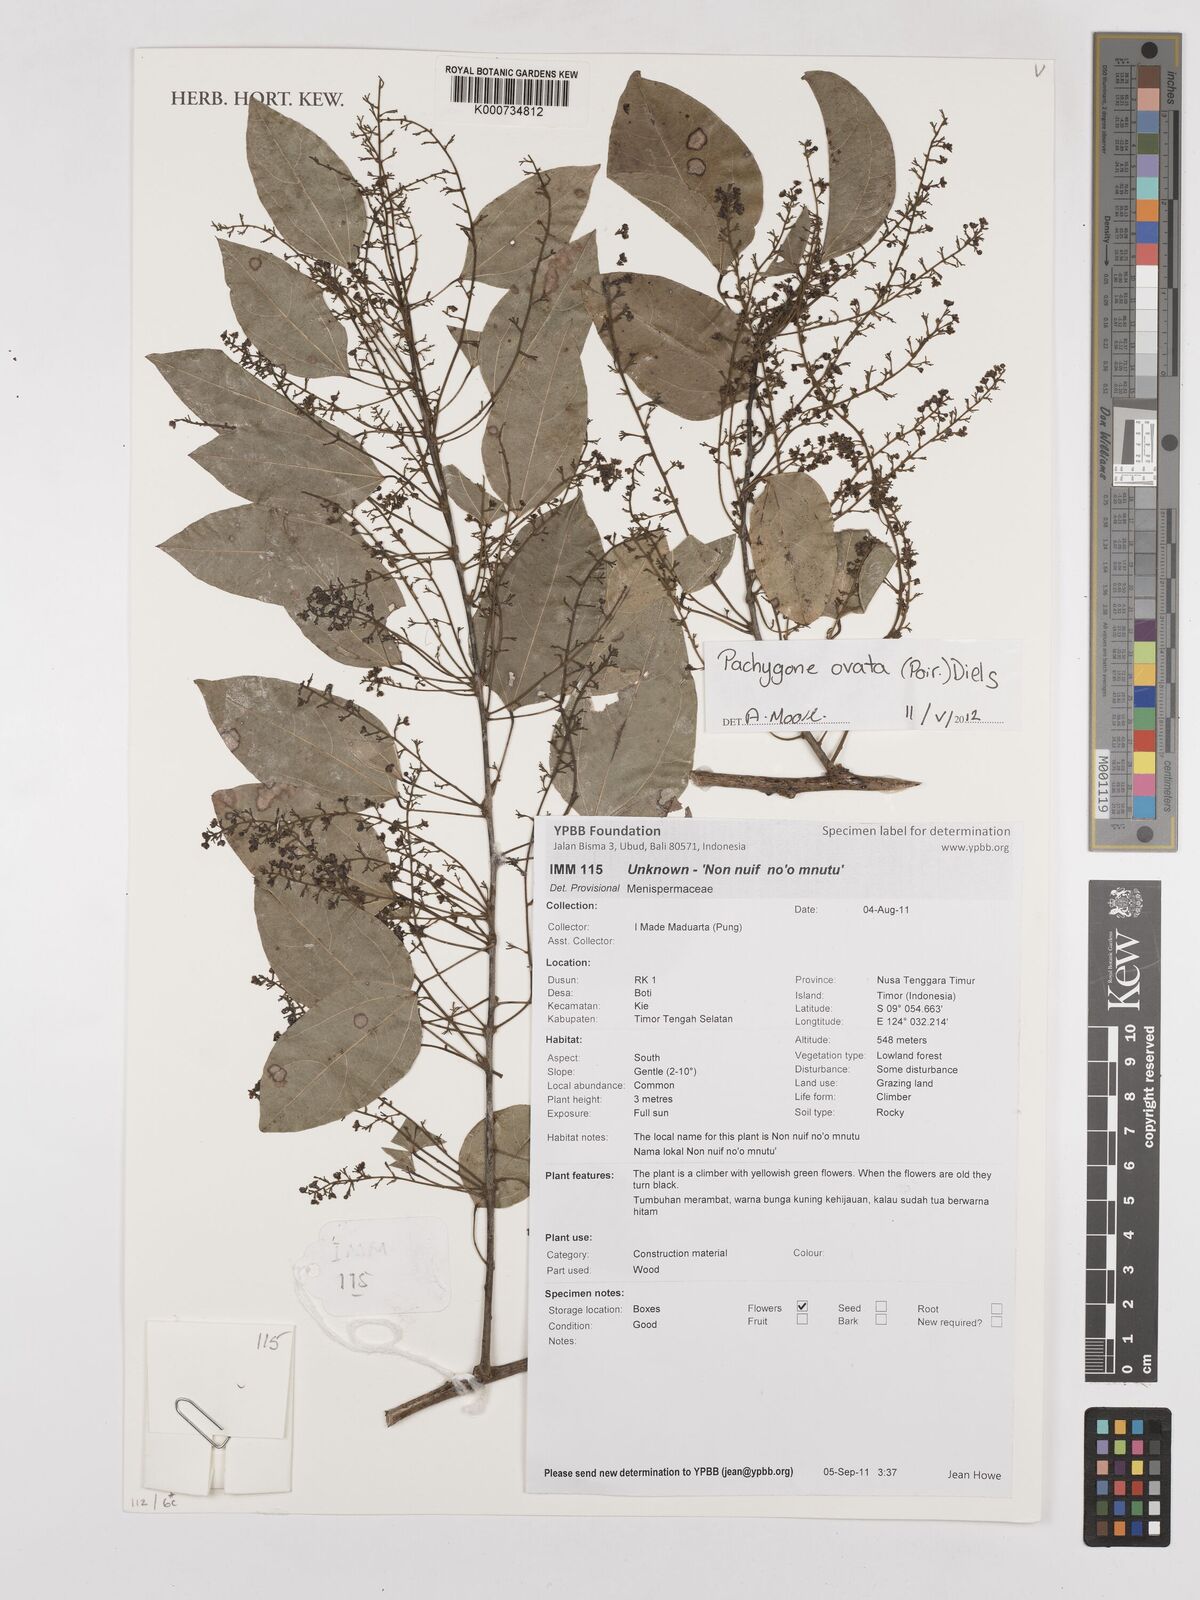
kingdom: Plantae
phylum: Tracheophyta
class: Magnoliopsida
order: Ranunculales
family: Menispermaceae
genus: Pachygone
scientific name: Pachygone
